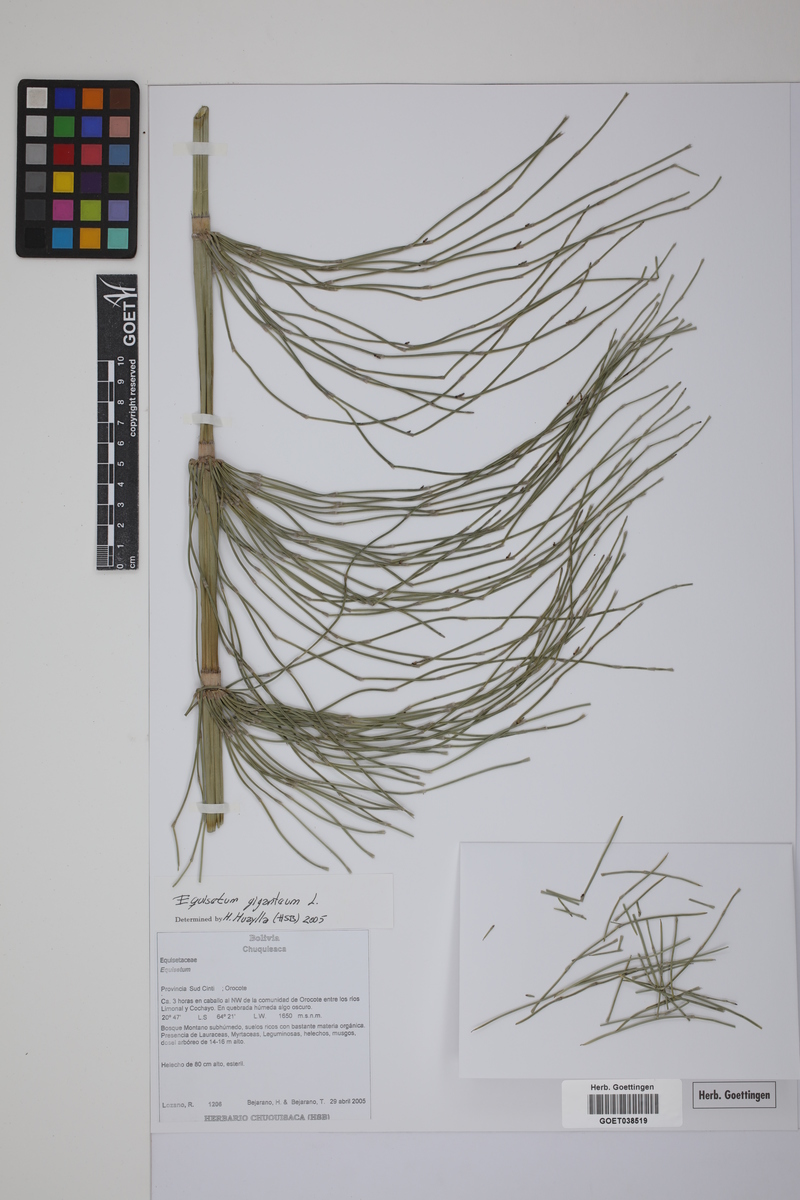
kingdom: Plantae
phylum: Tracheophyta
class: Polypodiopsida
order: Equisetales
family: Equisetaceae
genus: Equisetum
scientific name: Equisetum giganteum
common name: Giant horsetail
